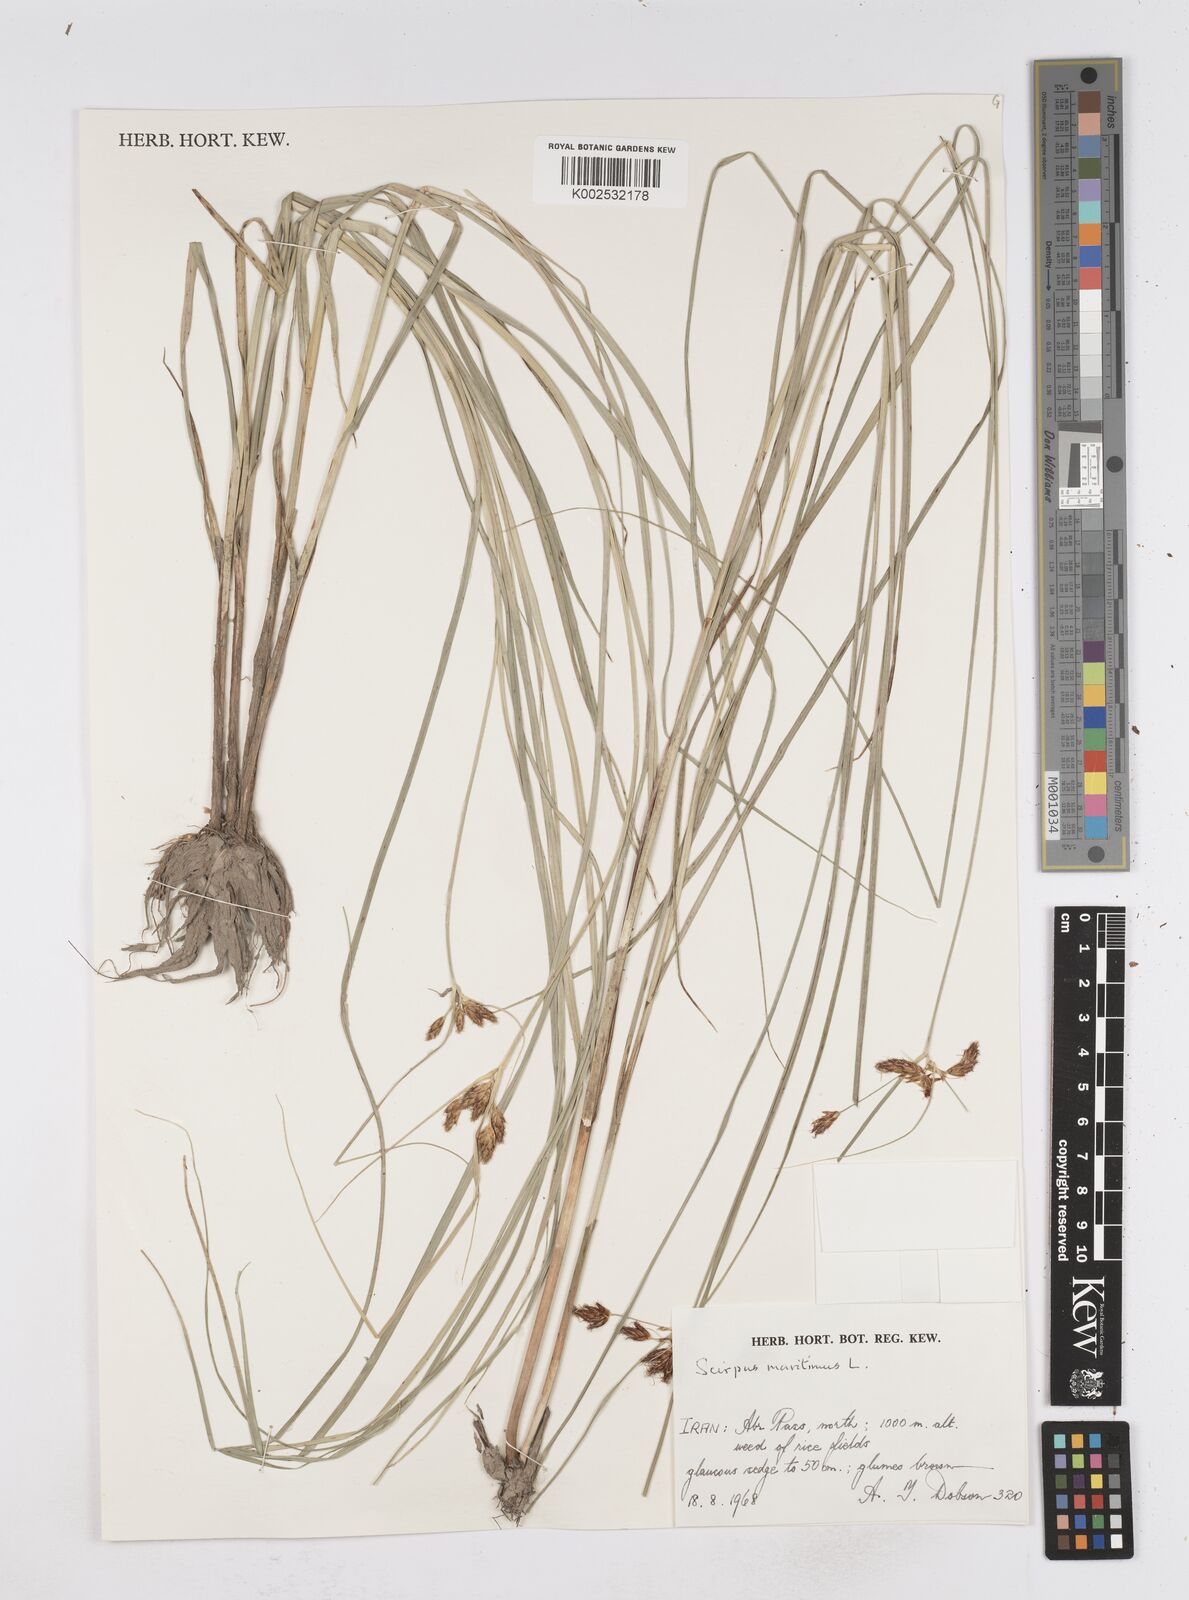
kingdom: Plantae
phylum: Tracheophyta
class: Liliopsida
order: Poales
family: Cyperaceae
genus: Bolboschoenus
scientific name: Bolboschoenus maritimus
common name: Sea club-rush
